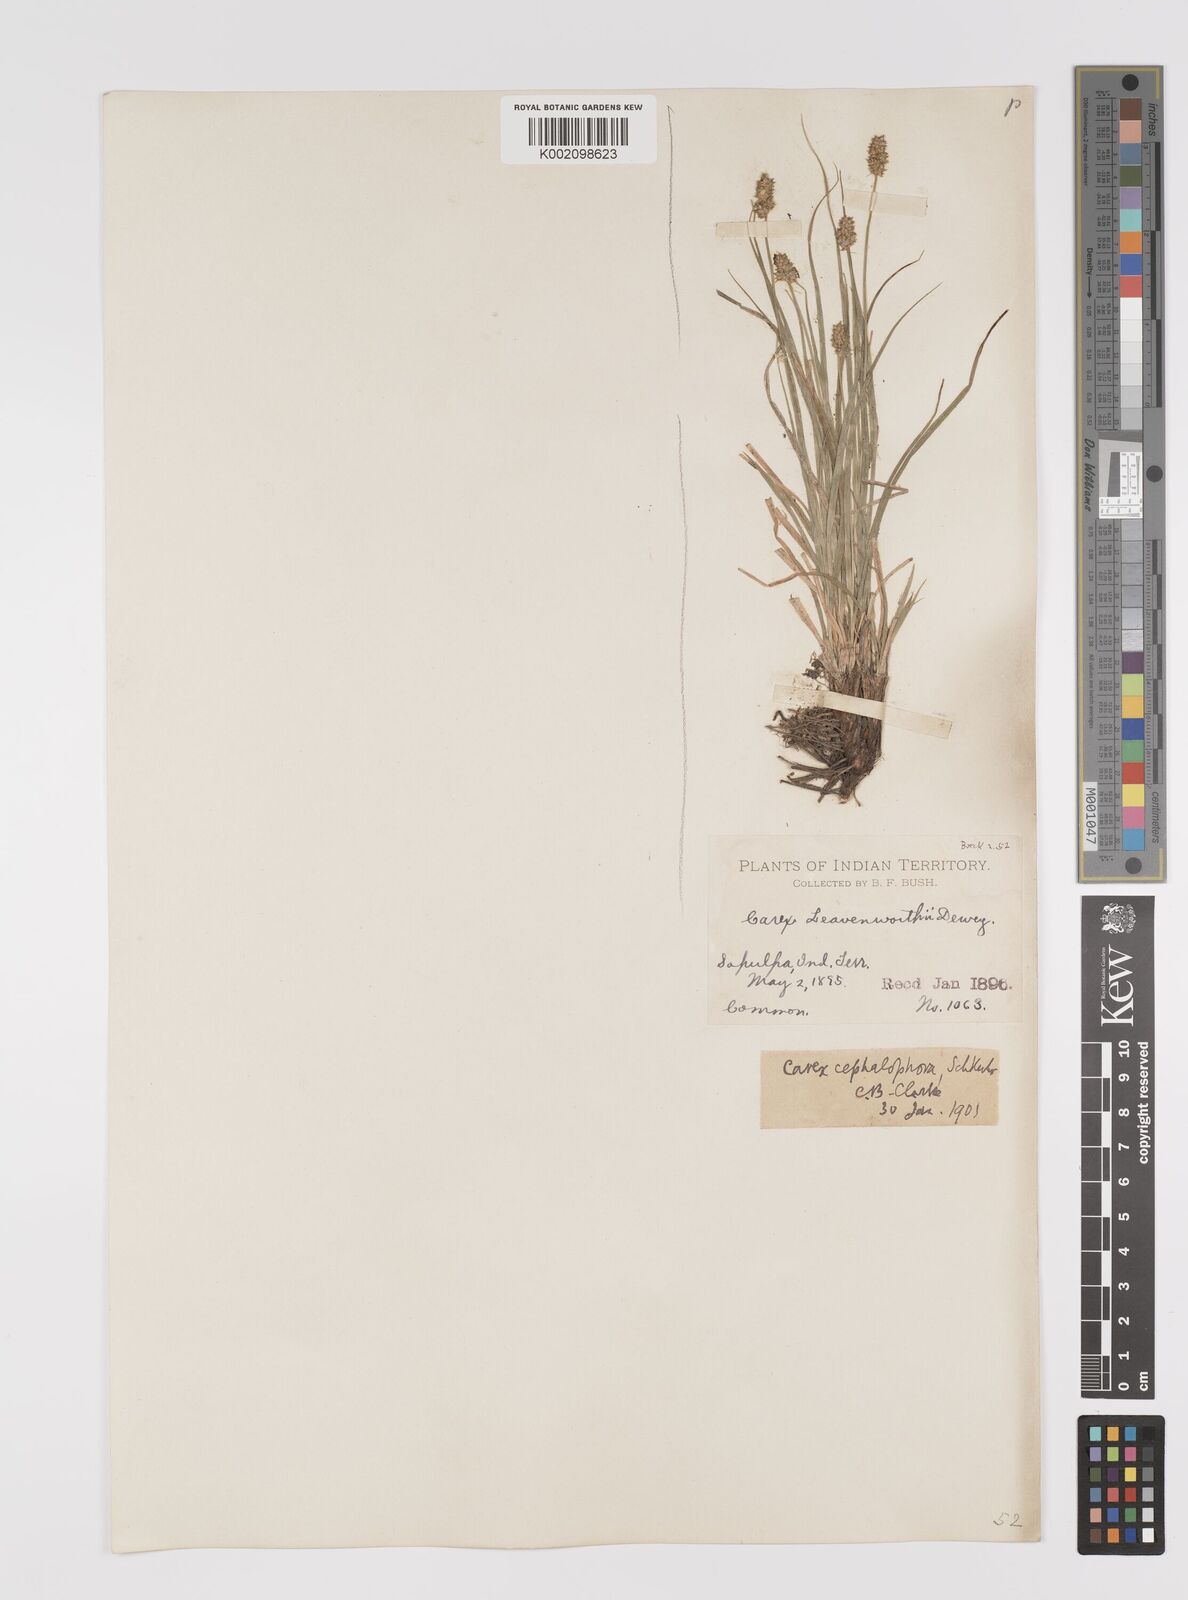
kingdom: Plantae
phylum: Tracheophyta
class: Liliopsida
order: Poales
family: Cyperaceae
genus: Carex
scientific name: Carex cephalophora
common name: Oval-headed sedge
